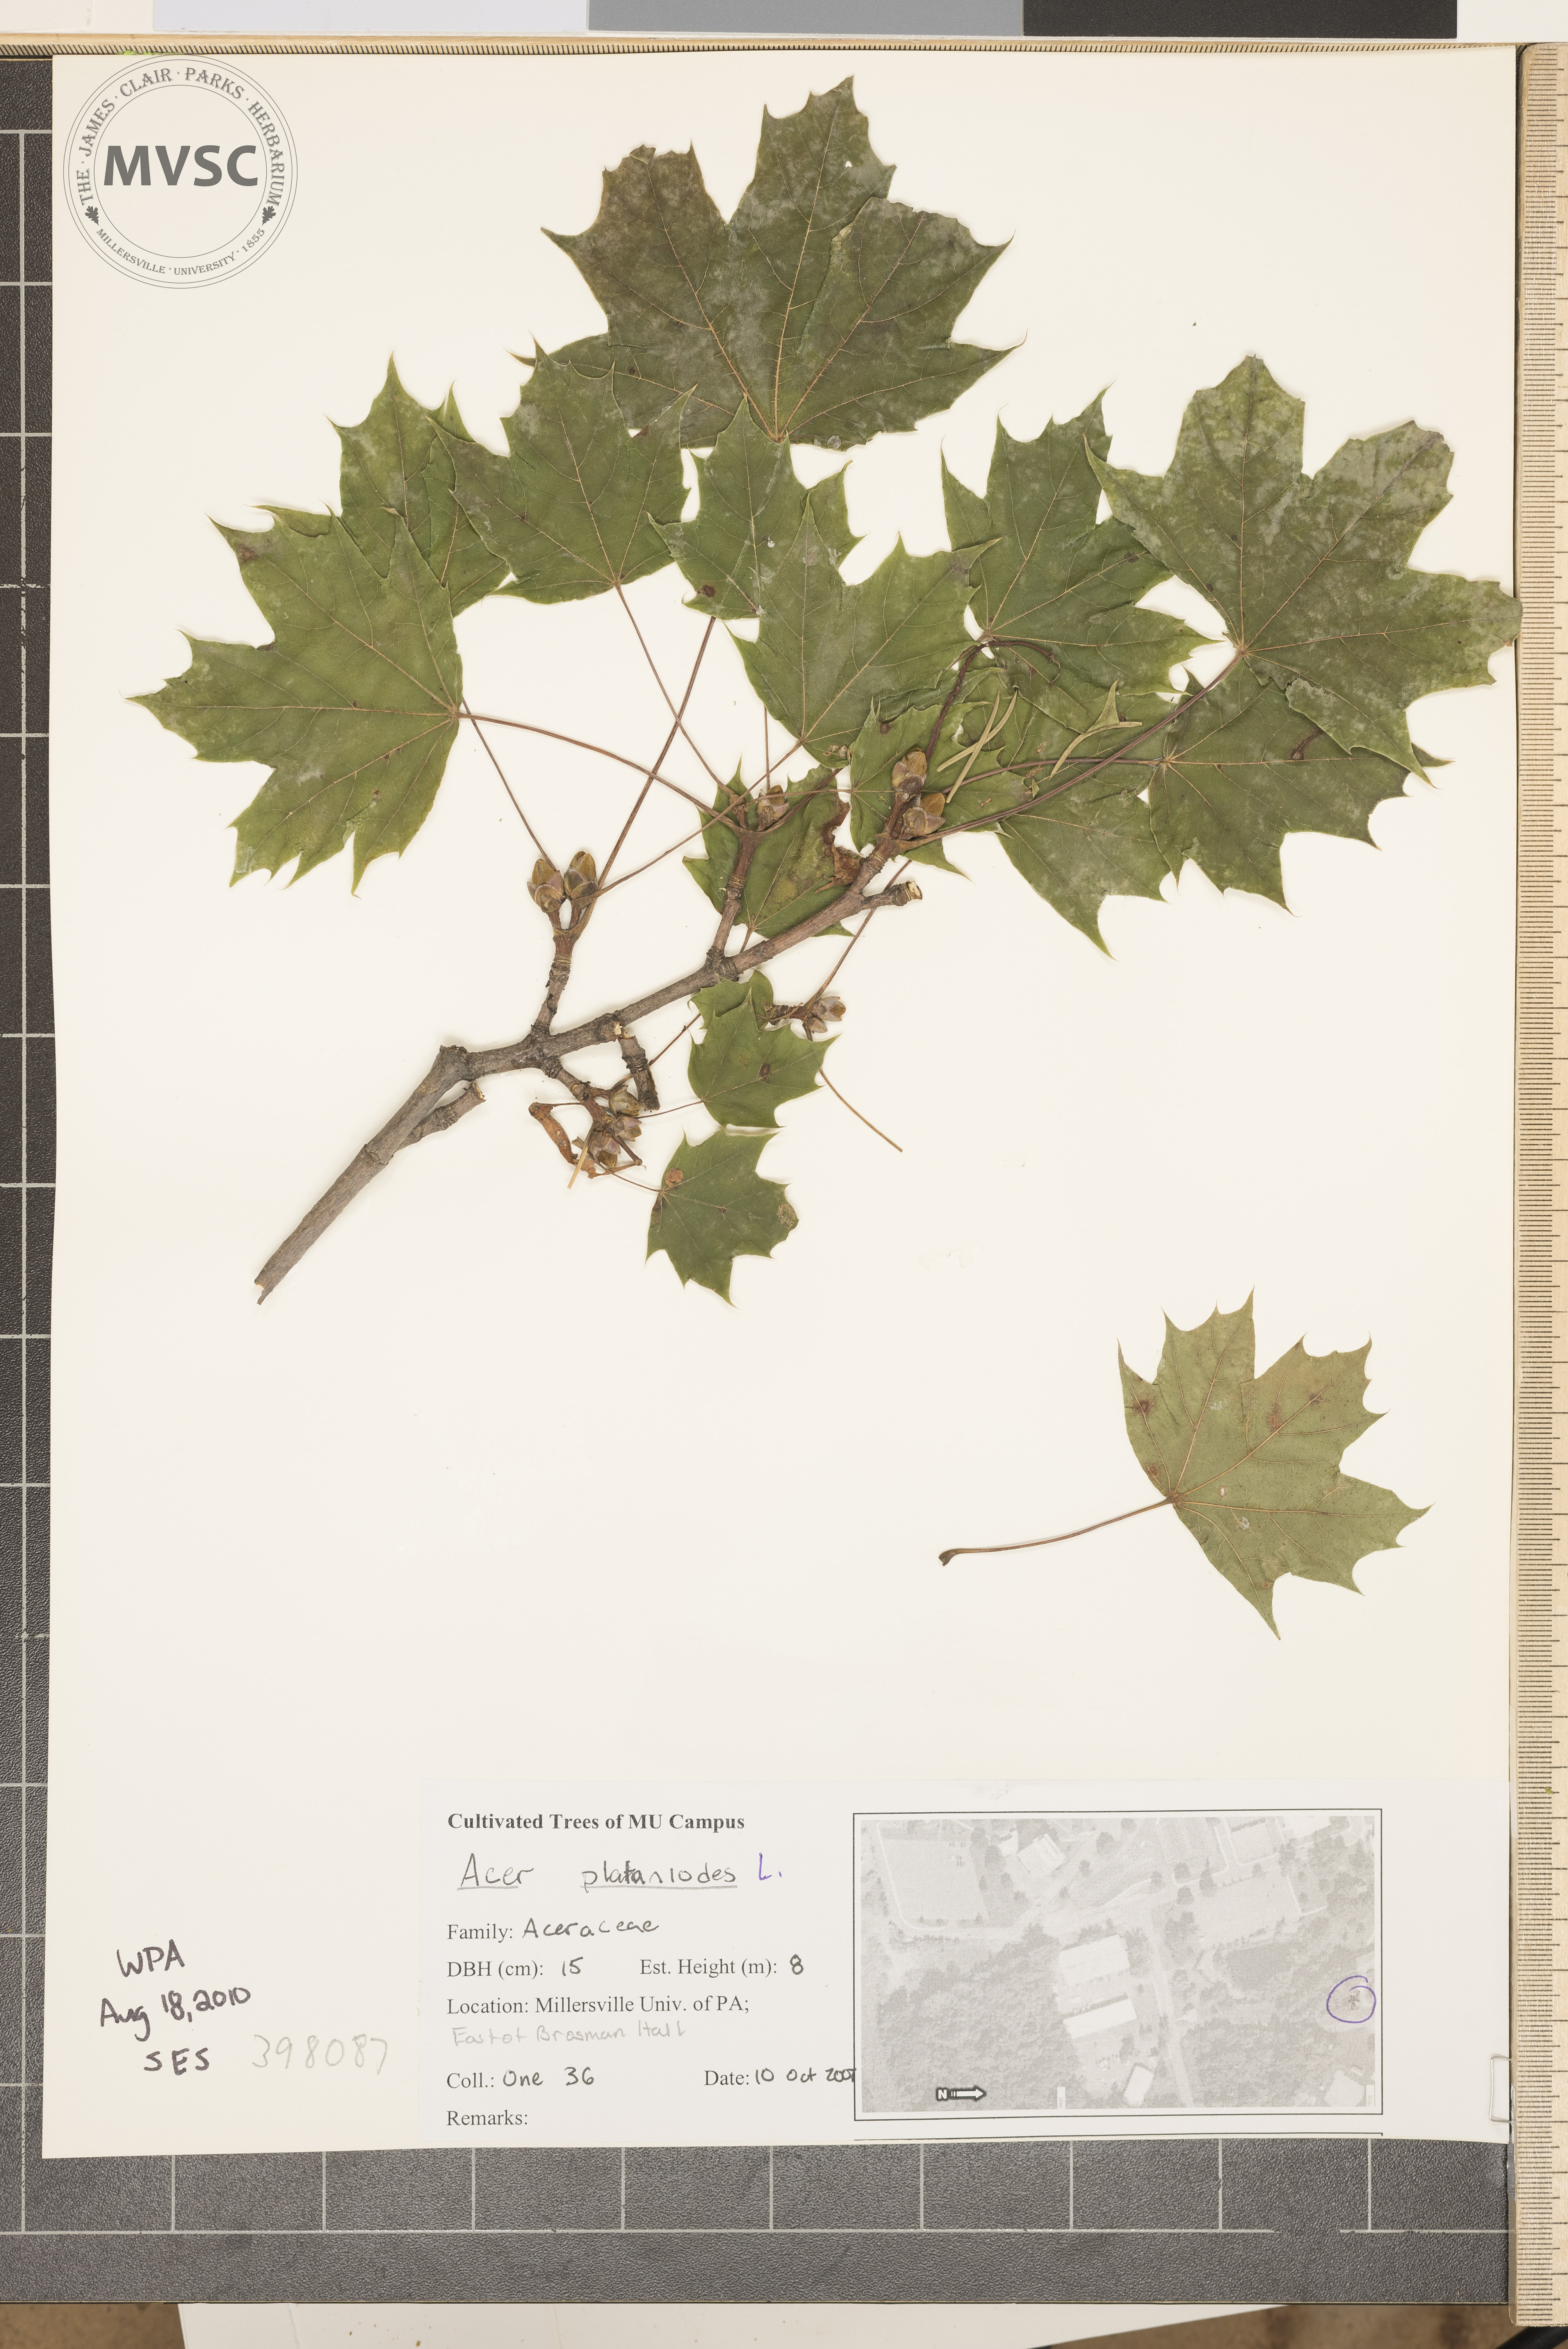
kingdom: Plantae
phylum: Tracheophyta
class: Magnoliopsida
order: Sapindales
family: Sapindaceae
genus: Acer
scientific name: Acer platanoides
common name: Norway maple
